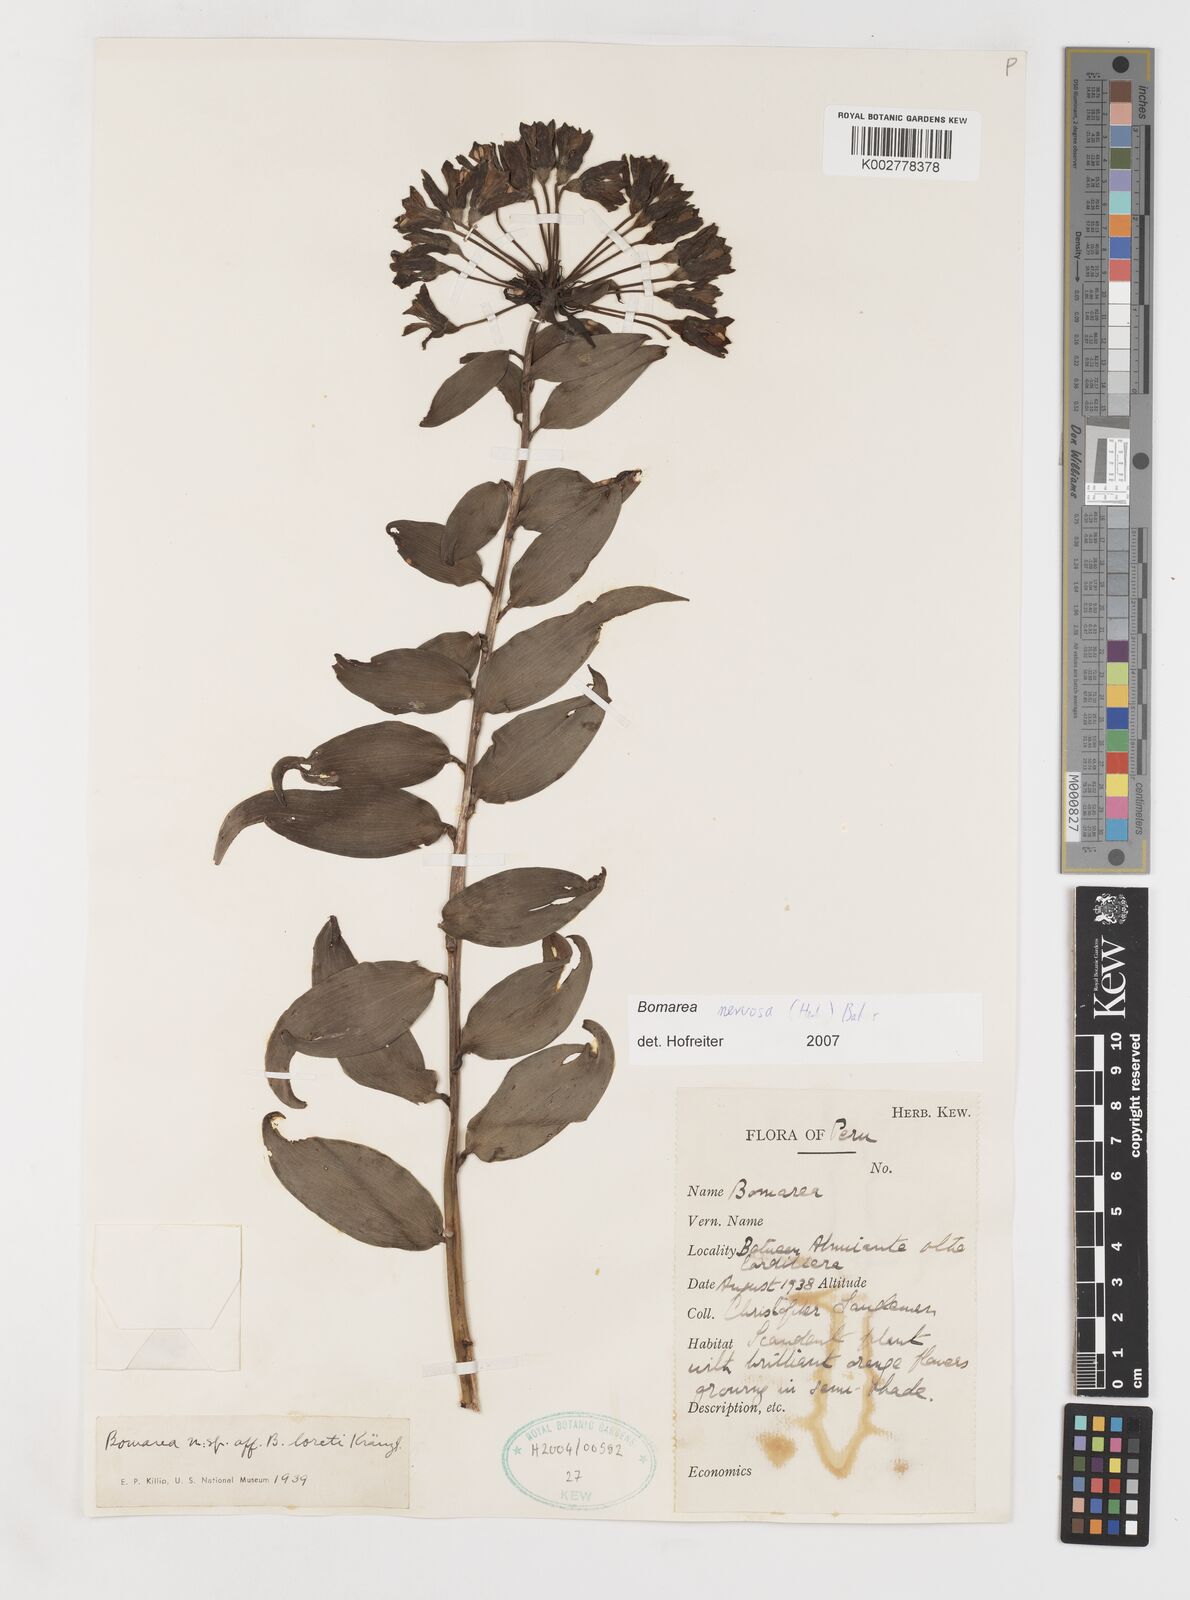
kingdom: Plantae
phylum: Tracheophyta
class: Liliopsida
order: Liliales
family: Alstroemeriaceae
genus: Bomarea
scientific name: Bomarea nervosa
